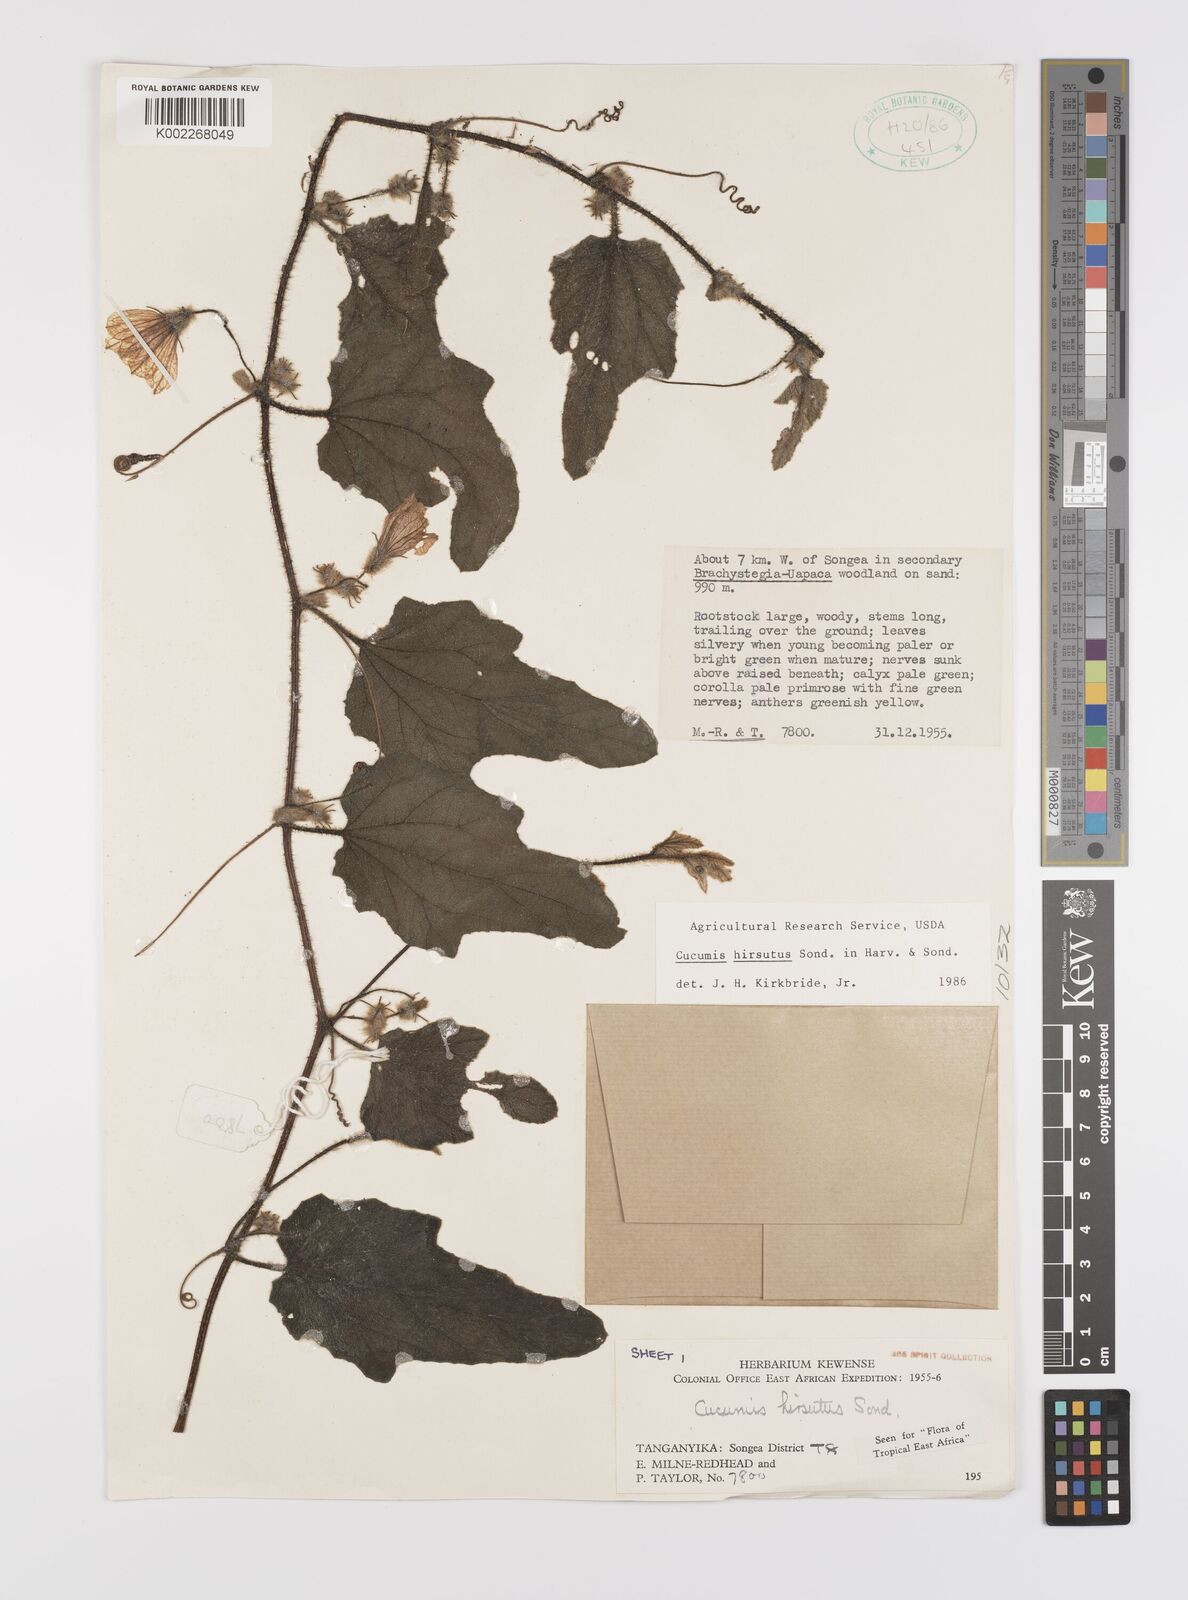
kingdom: Plantae
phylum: Tracheophyta
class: Magnoliopsida
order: Cucurbitales
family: Cucurbitaceae
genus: Cucumis
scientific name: Cucumis hirsutus
